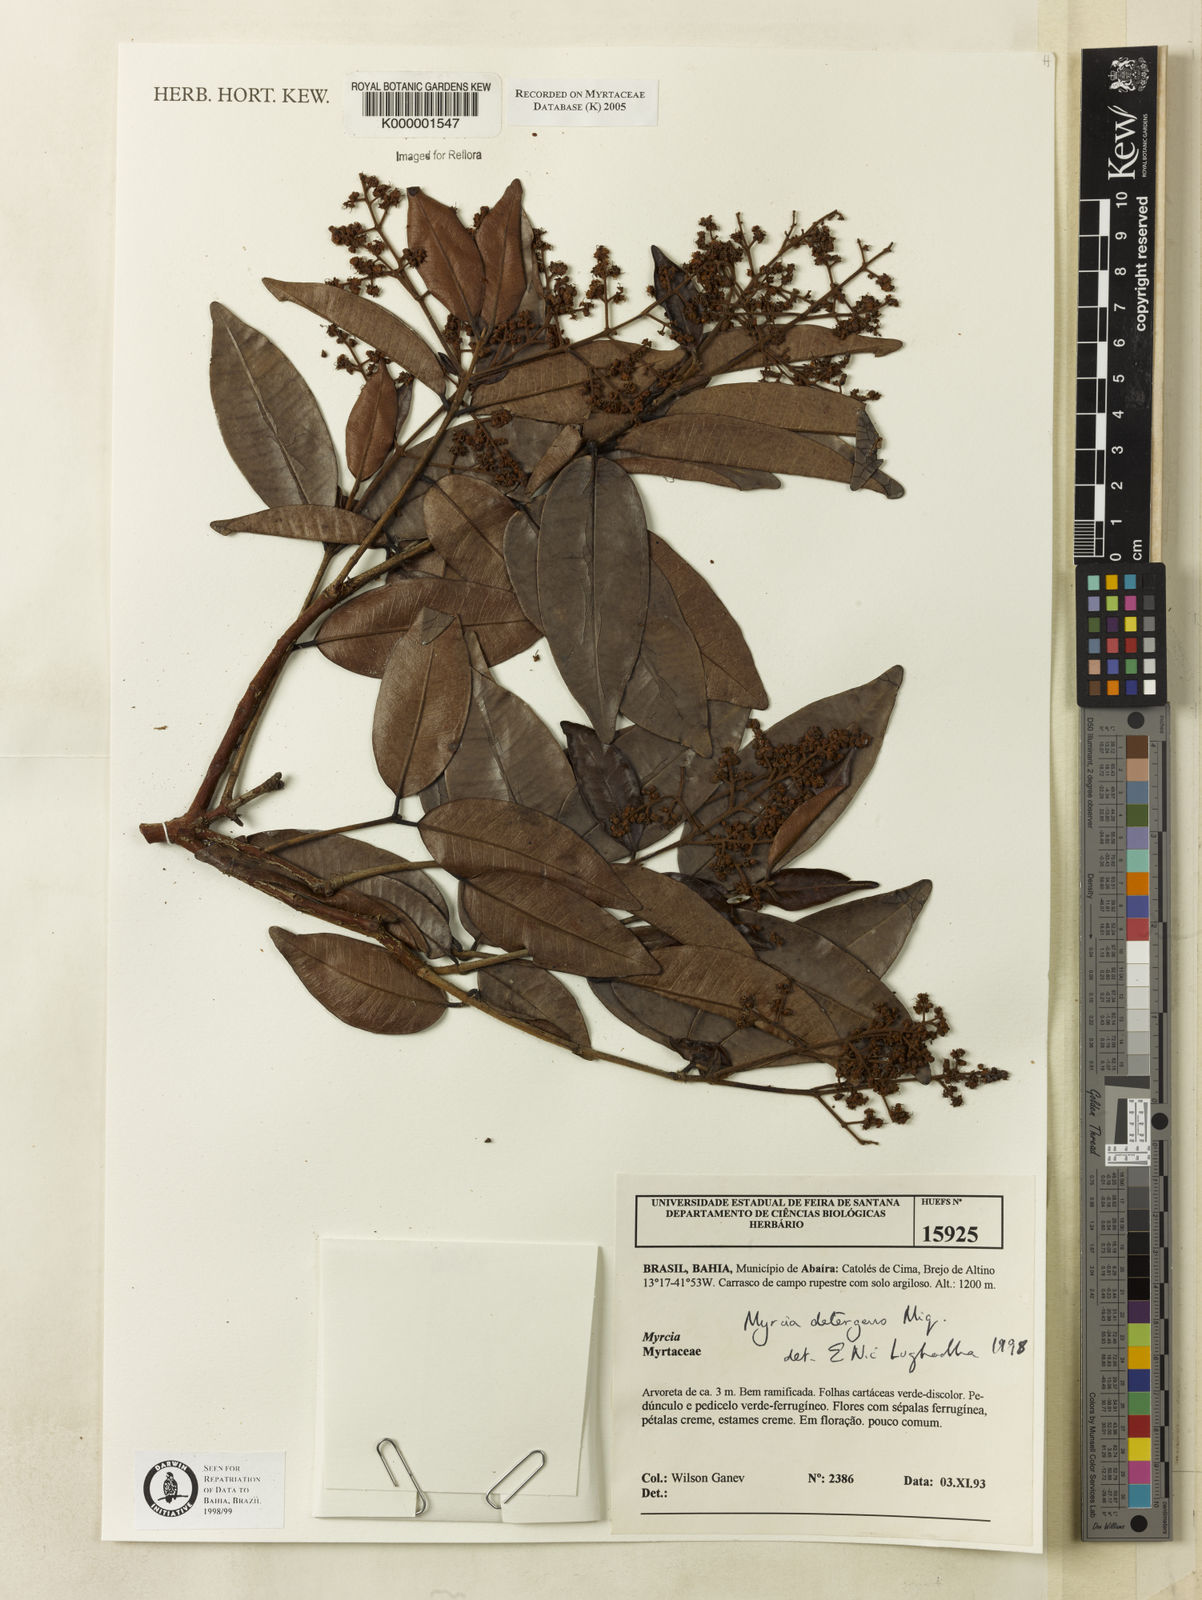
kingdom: Plantae
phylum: Tracheophyta
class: Magnoliopsida
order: Myrtales
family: Myrtaceae
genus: Myrcia
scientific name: Myrcia amazonica
